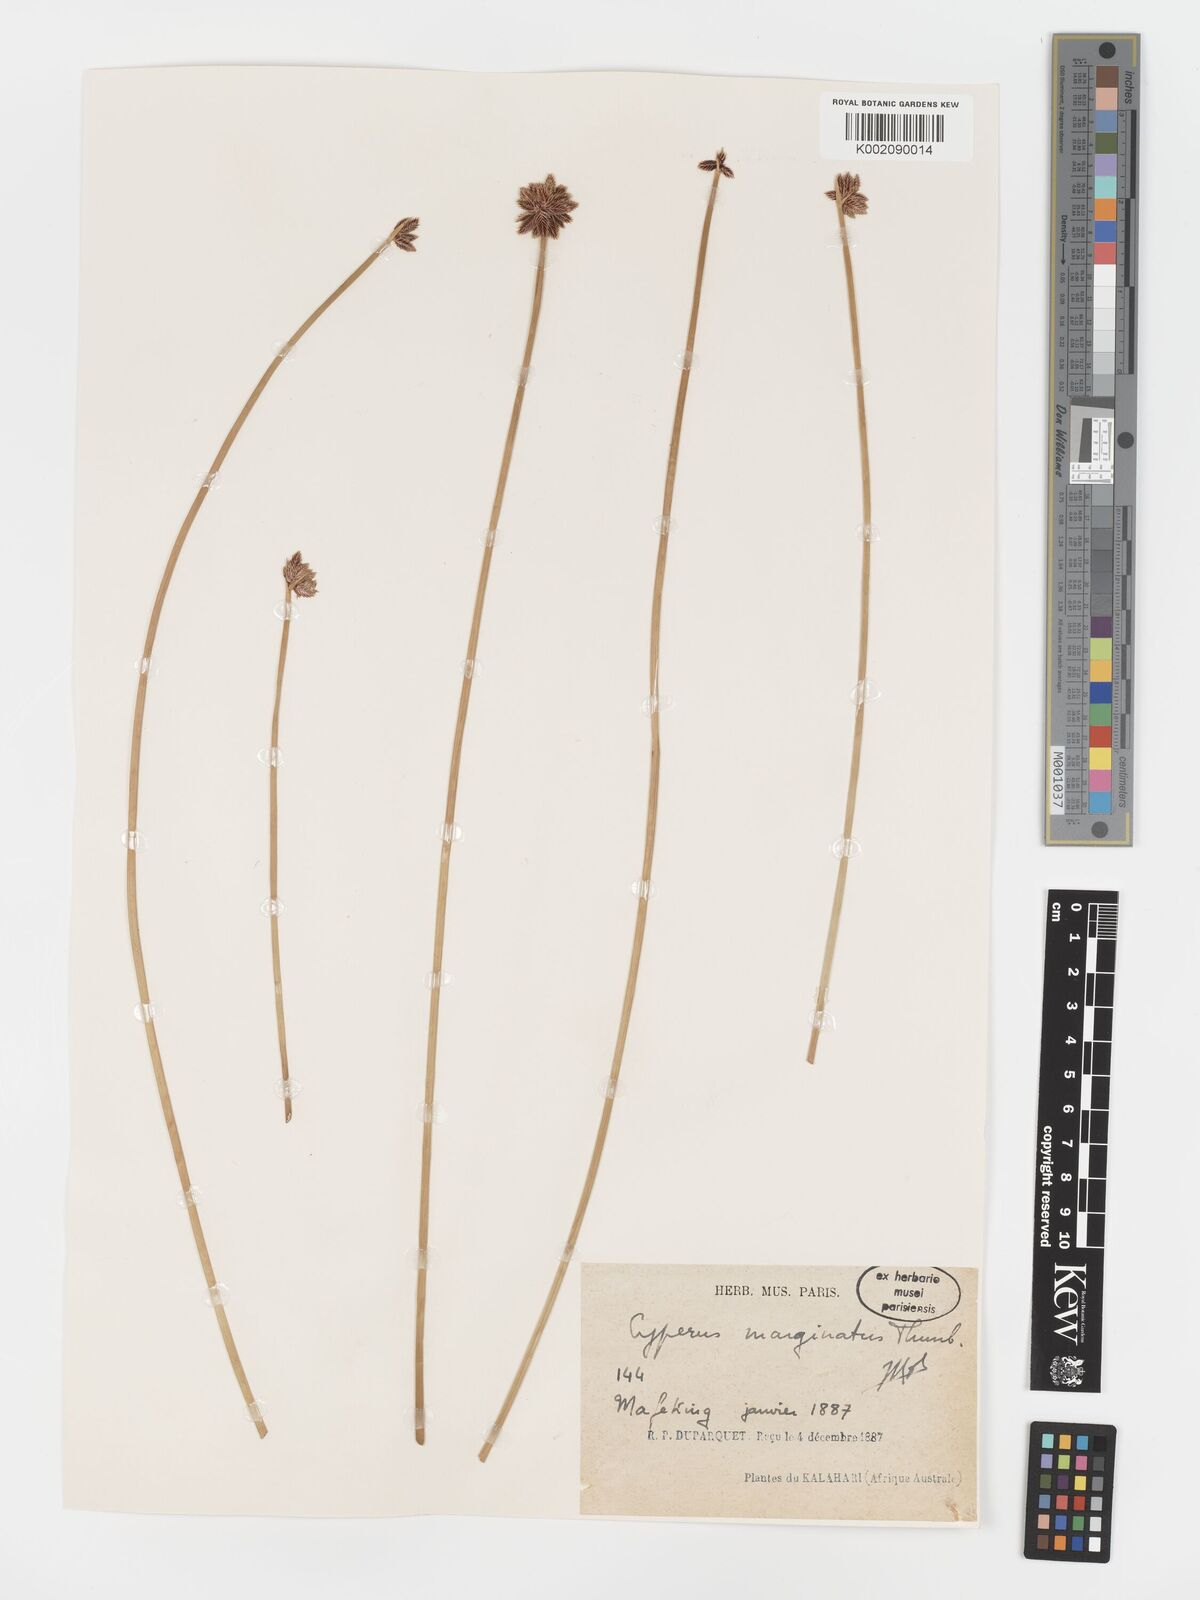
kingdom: Plantae
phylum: Tracheophyta
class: Liliopsida
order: Poales
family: Cyperaceae
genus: Cyperus
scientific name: Cyperus marginatus
